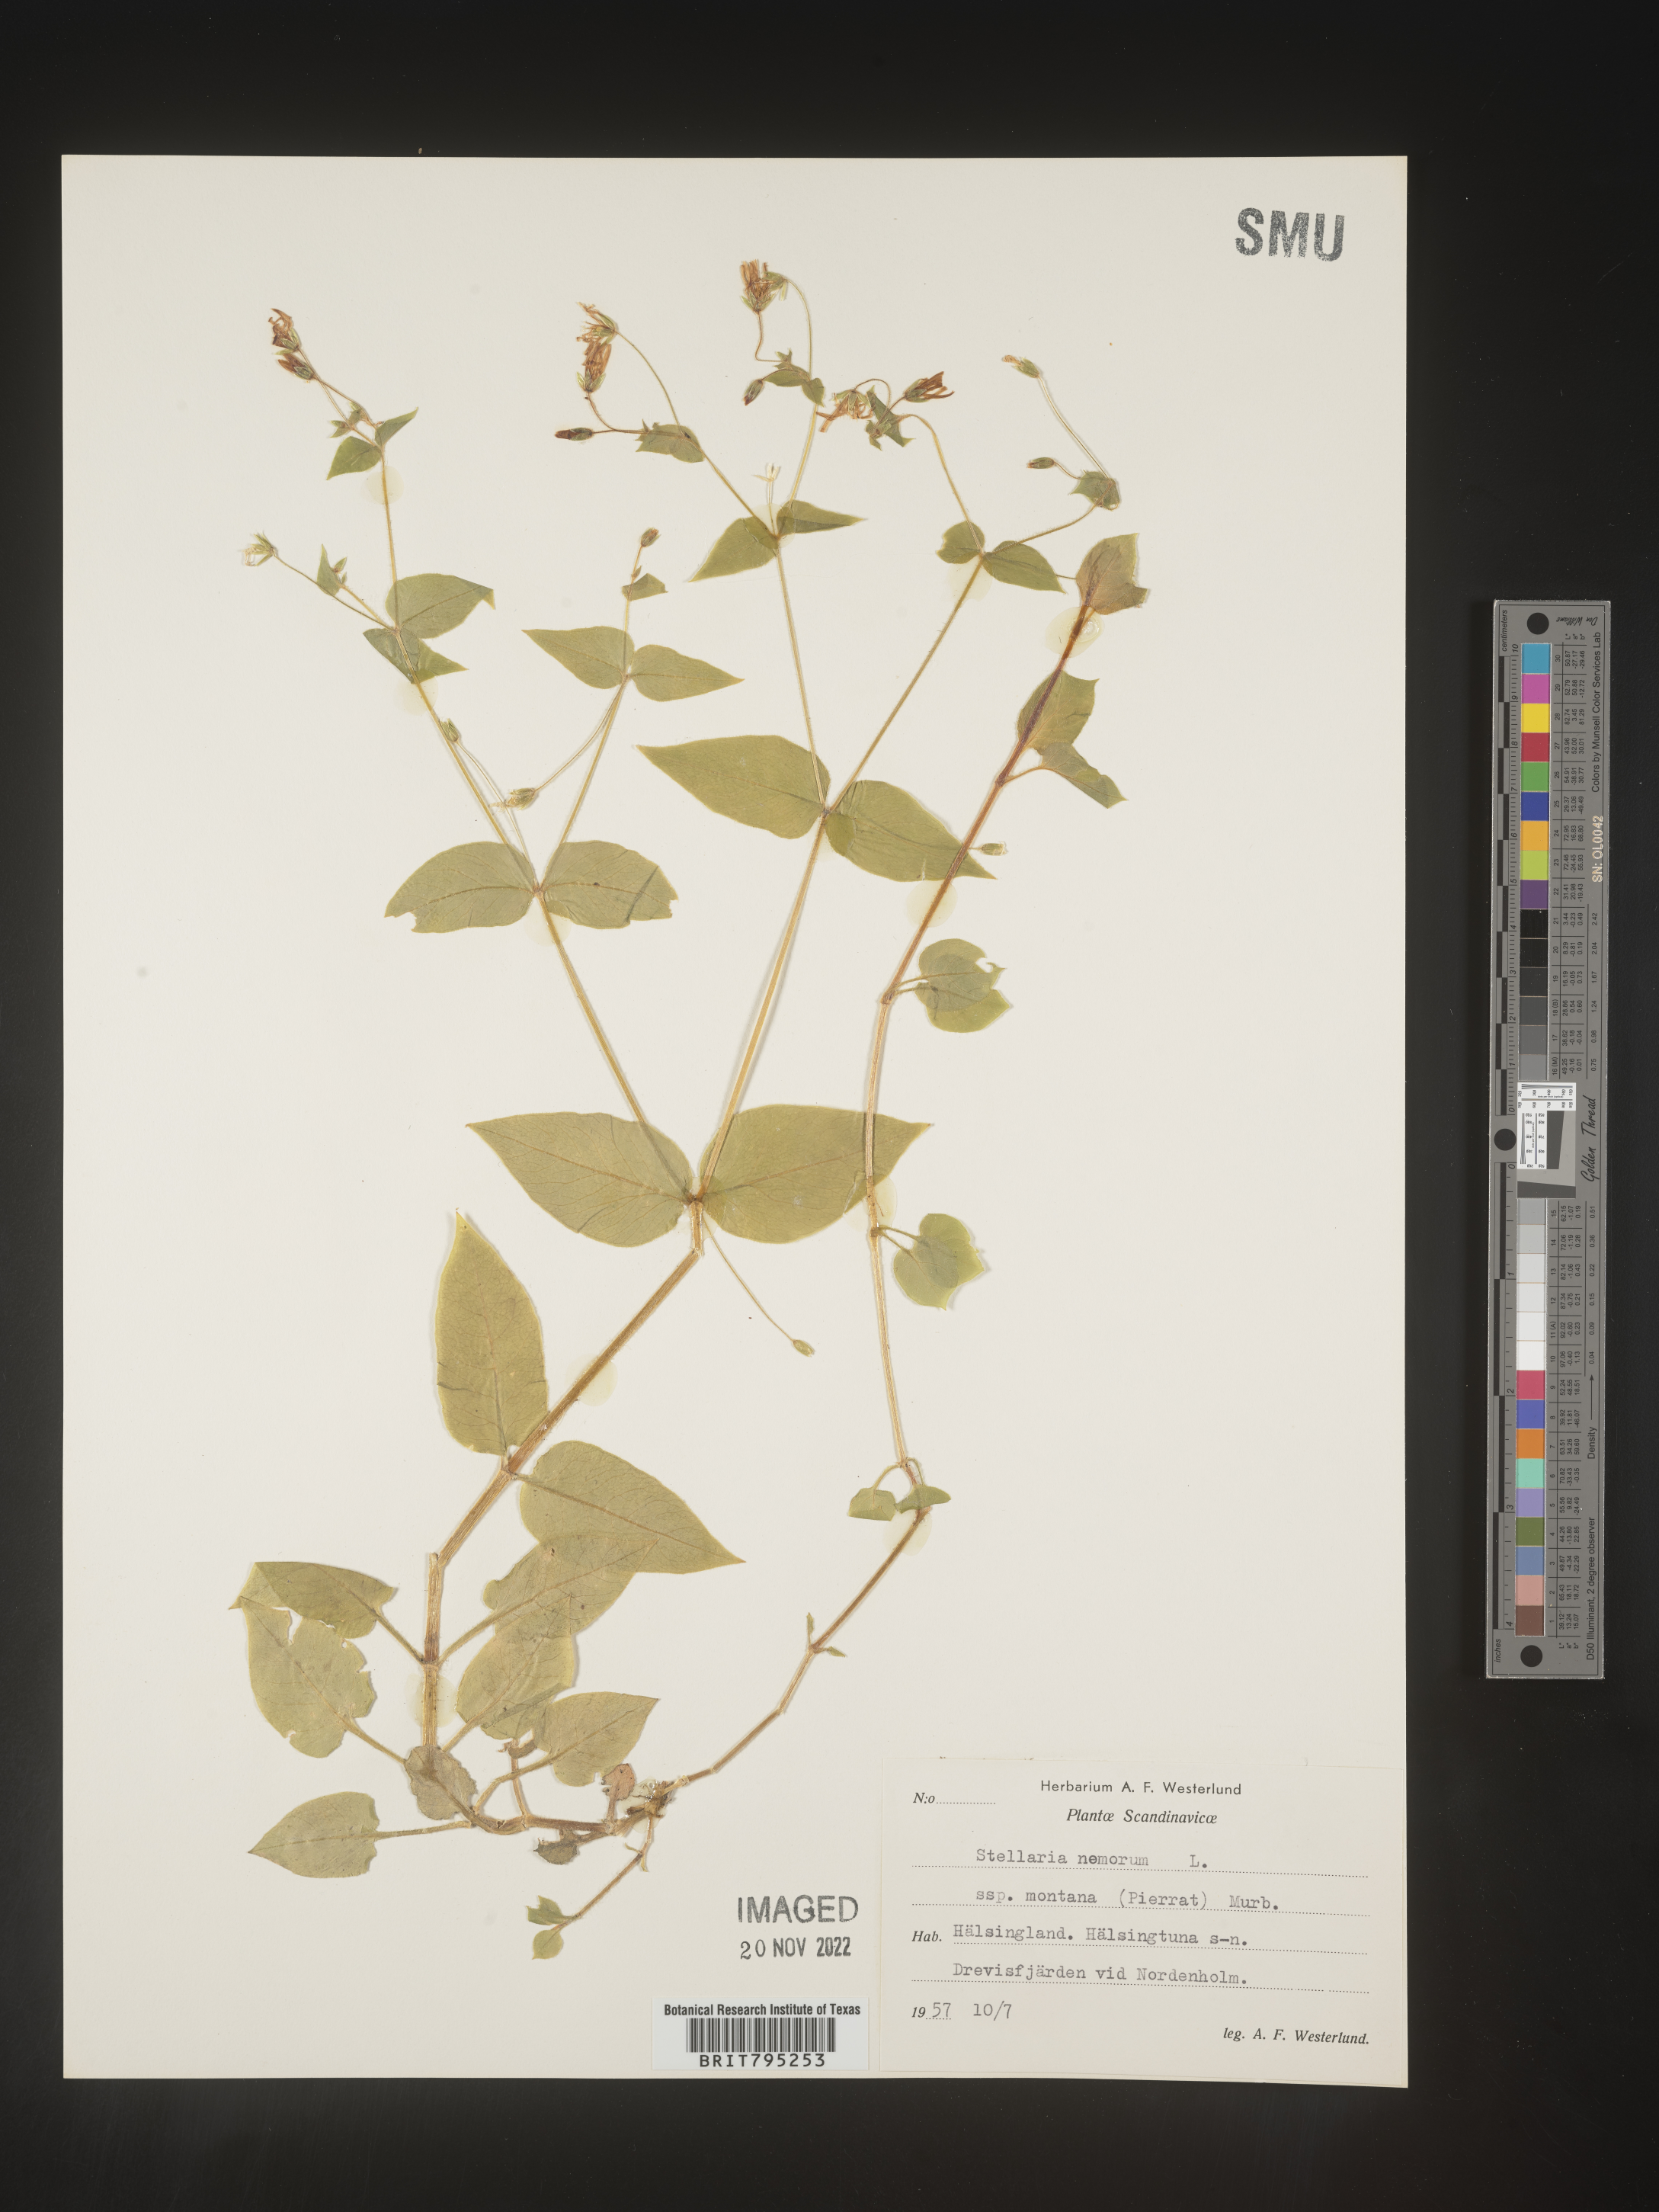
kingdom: Plantae
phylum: Tracheophyta
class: Magnoliopsida
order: Caryophyllales
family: Caryophyllaceae
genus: Stellaria
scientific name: Stellaria
